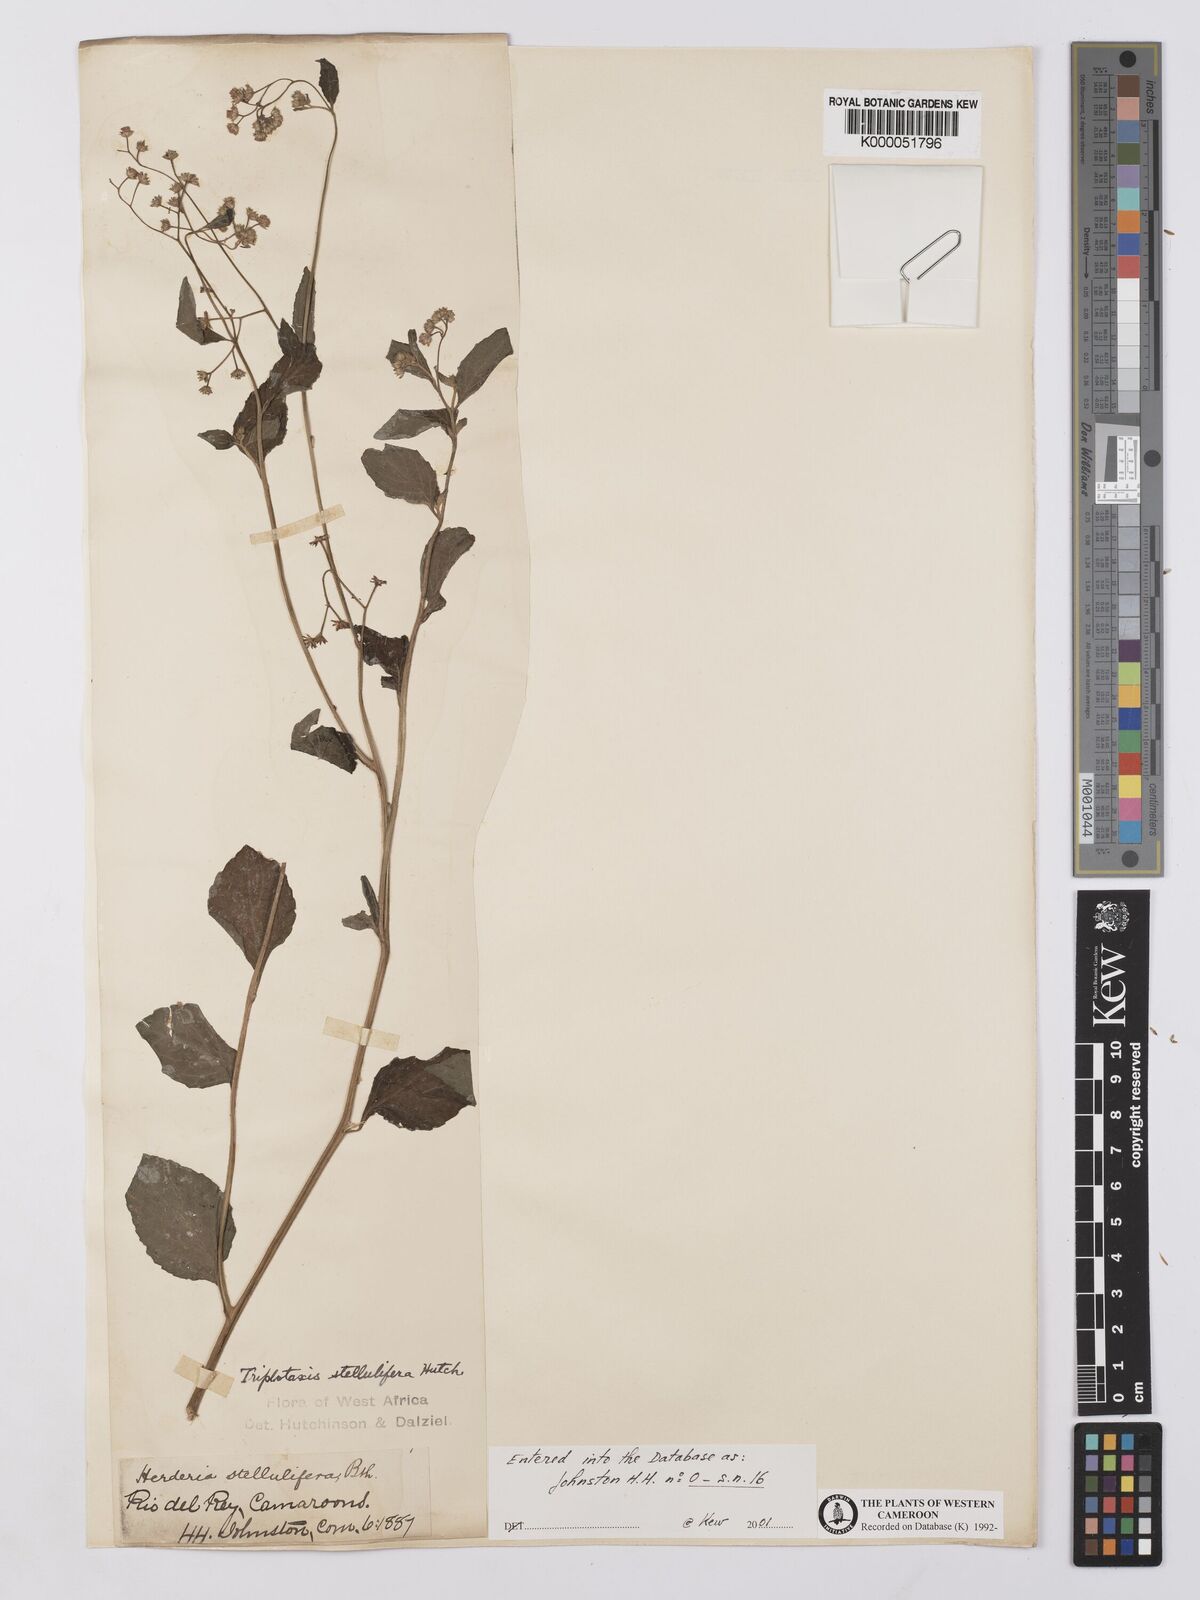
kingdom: Plantae
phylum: Tracheophyta
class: Magnoliopsida
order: Asterales
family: Asteraceae
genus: Cyanthillium
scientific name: Cyanthillium stelluliferum
